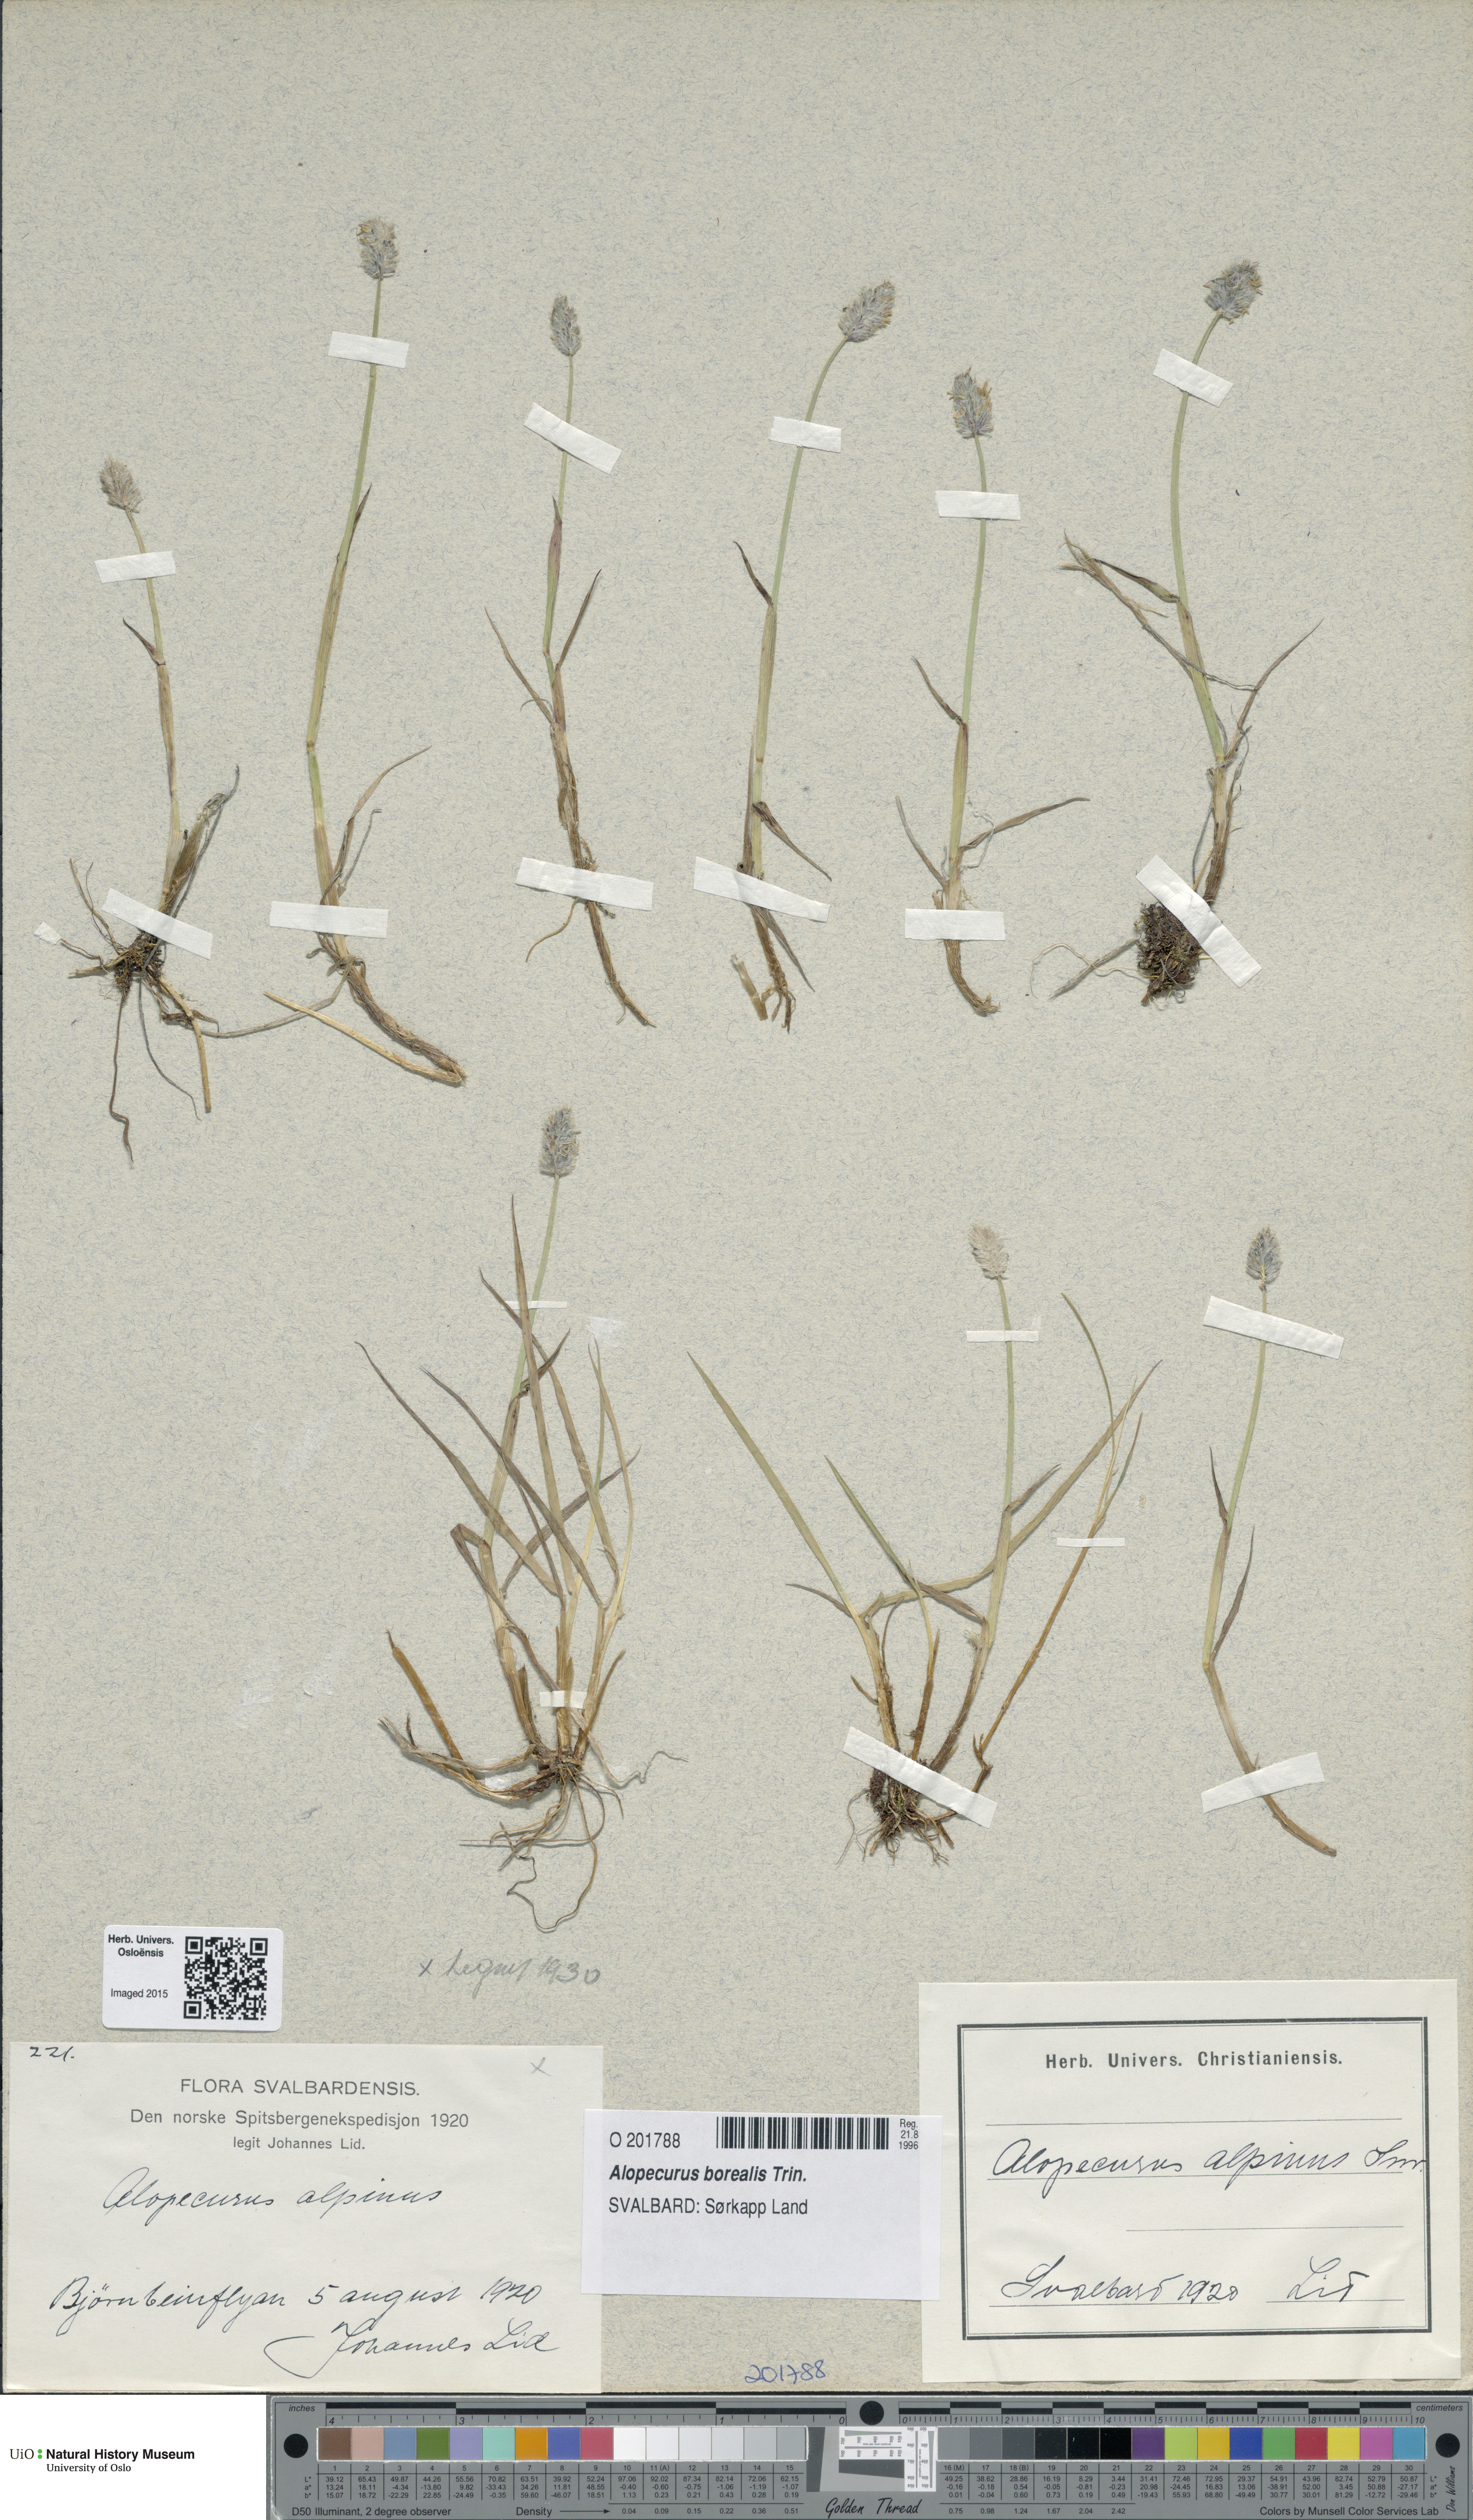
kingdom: Plantae
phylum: Tracheophyta
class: Liliopsida
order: Poales
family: Poaceae
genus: Alopecurus
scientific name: Alopecurus magellanicus
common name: Alpine foxtail
